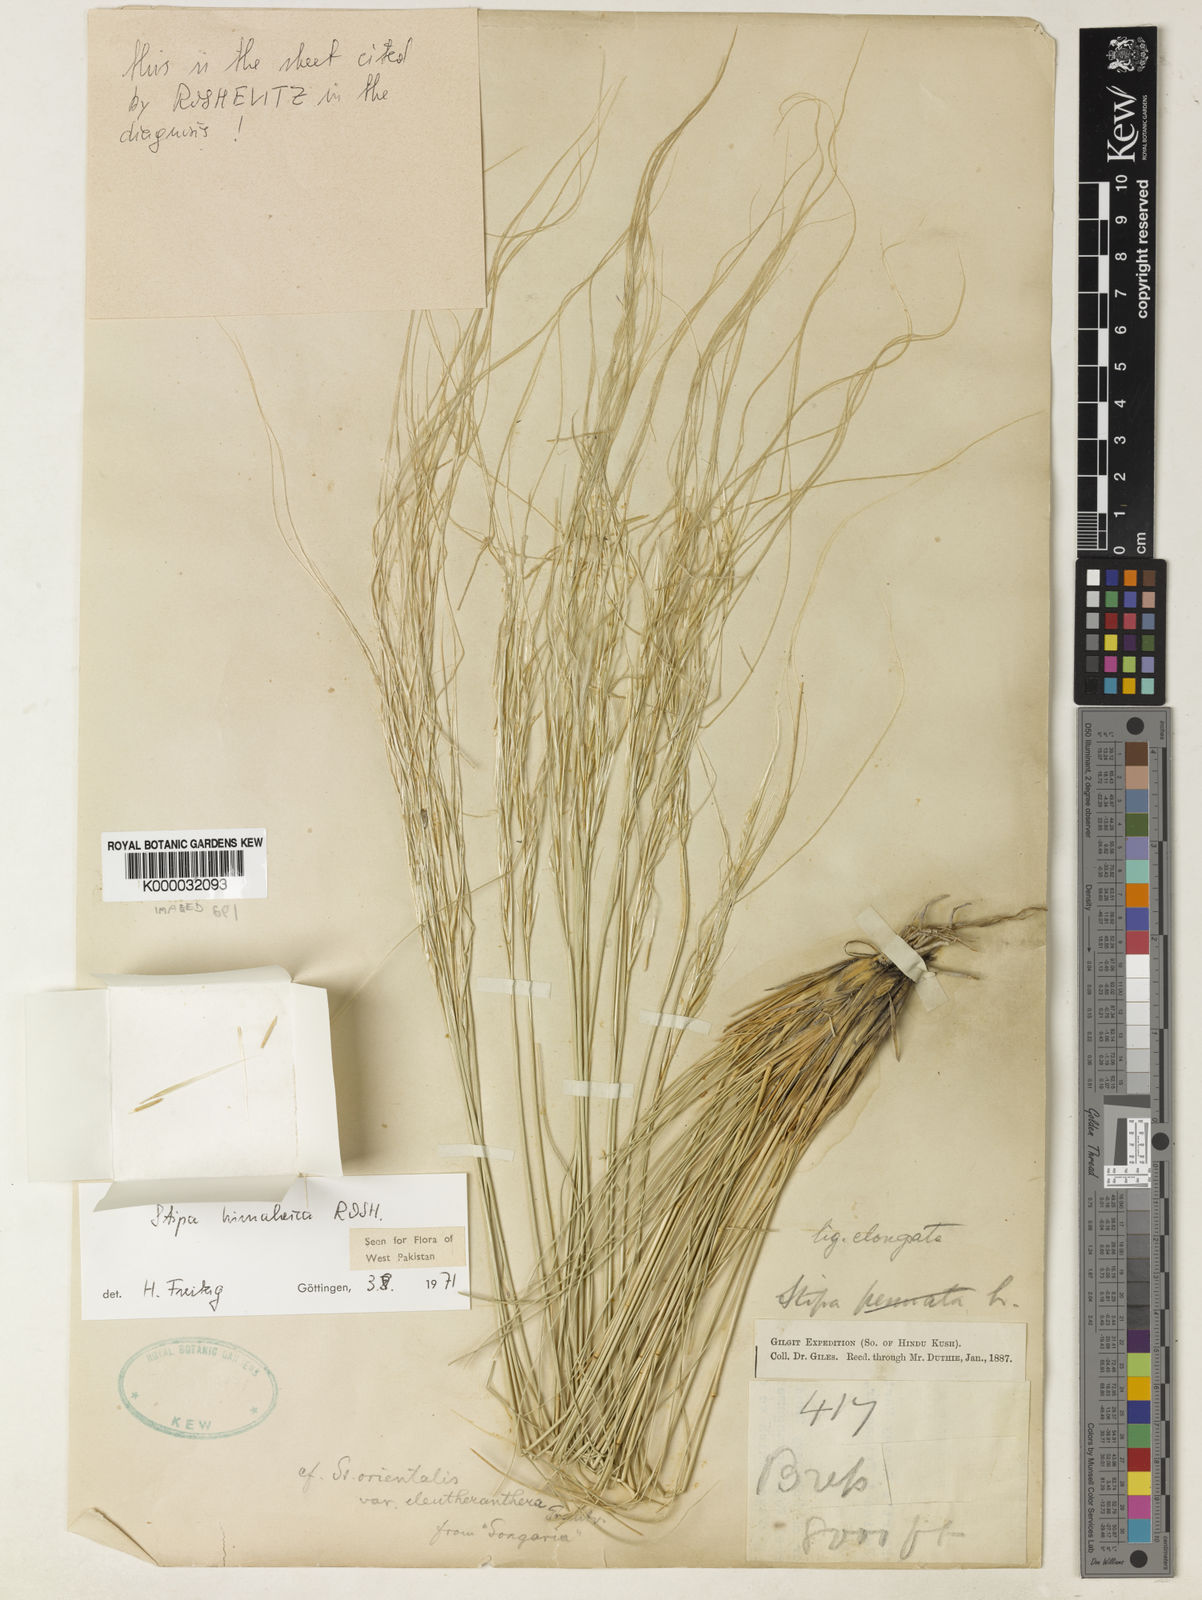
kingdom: Plantae
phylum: Tracheophyta
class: Liliopsida
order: Poales
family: Poaceae
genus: Stipa
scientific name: Stipa
